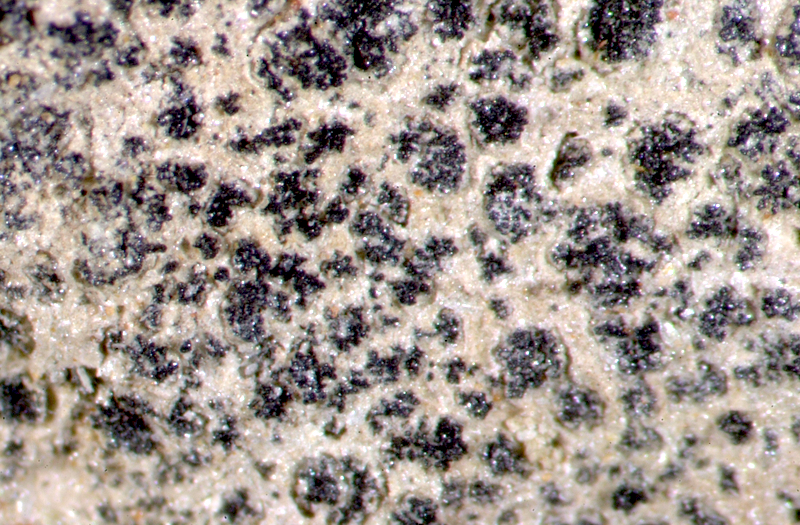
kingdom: Fungi
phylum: Ascomycota
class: Lichinomycetes
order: Lichinales
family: Lichinaceae
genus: Lichinella
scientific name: Lichinella stipatula
